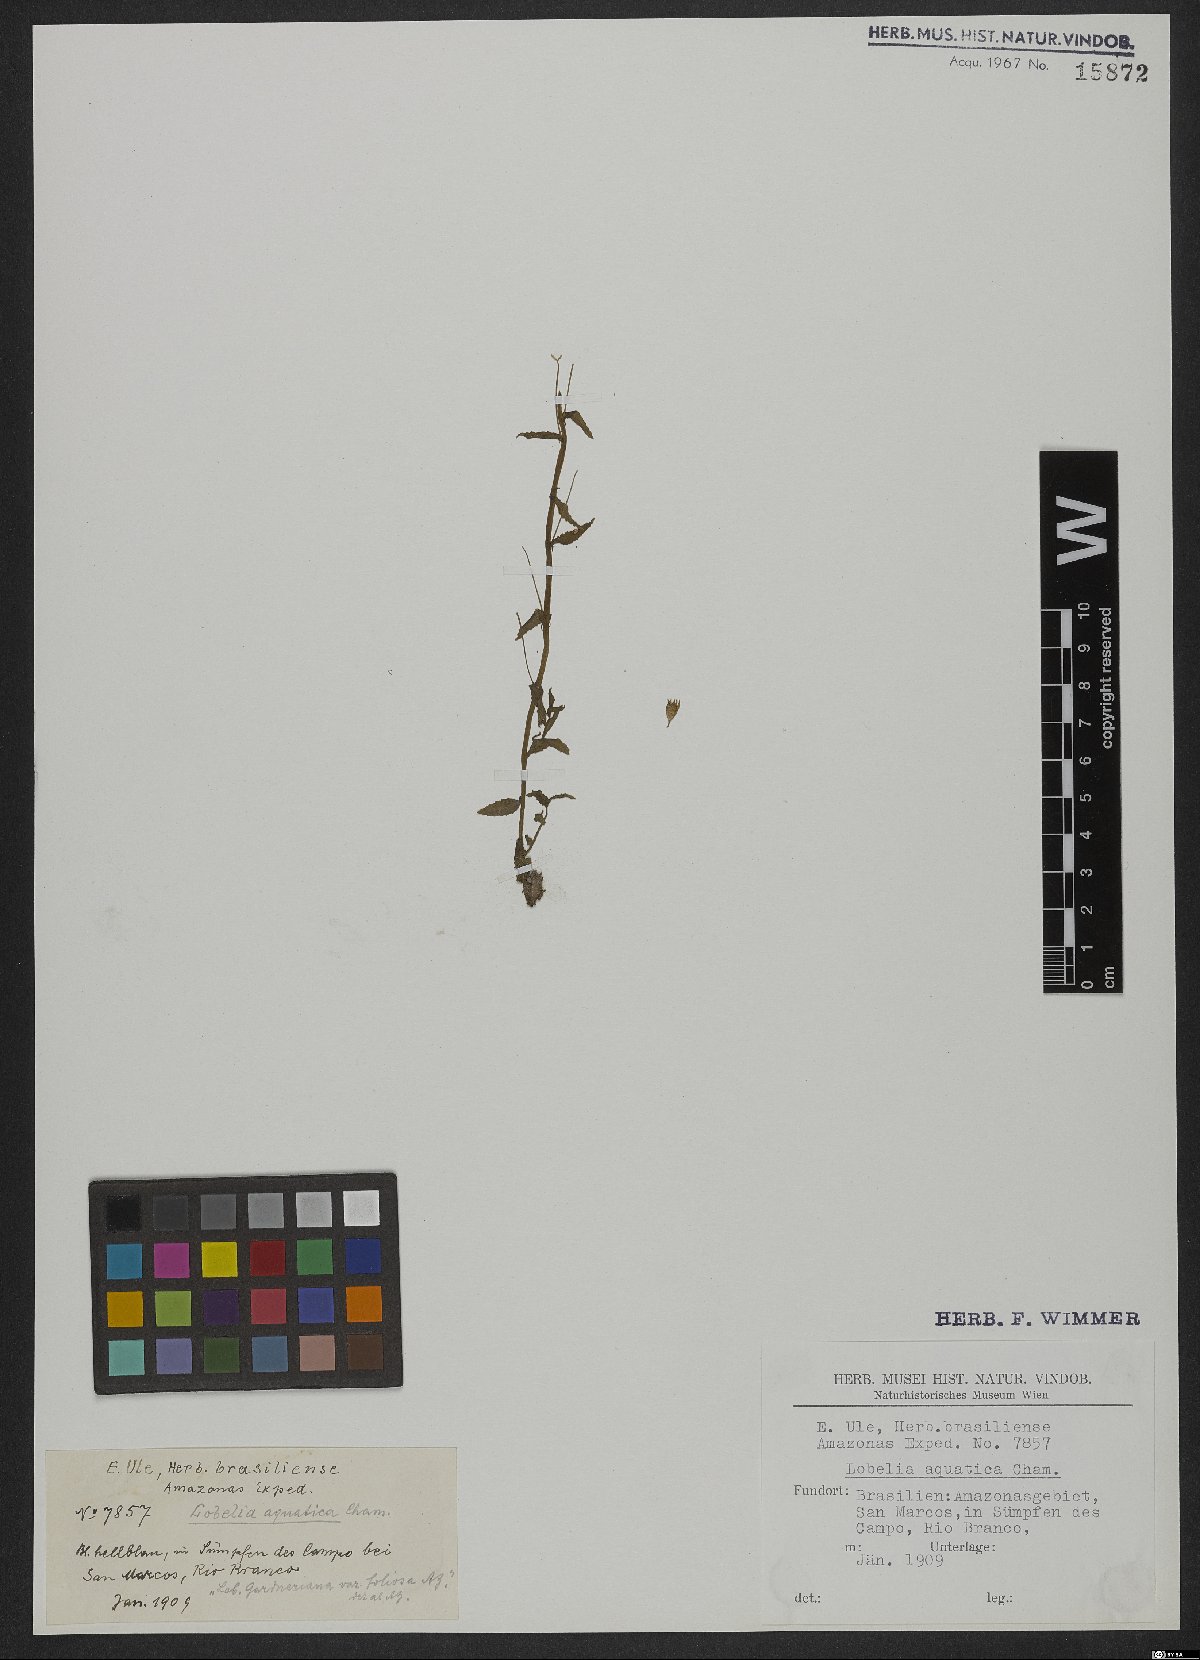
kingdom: Plantae
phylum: Tracheophyta
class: Magnoliopsida
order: Asterales
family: Campanulaceae
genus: Lobelia
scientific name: Lobelia aquatica
